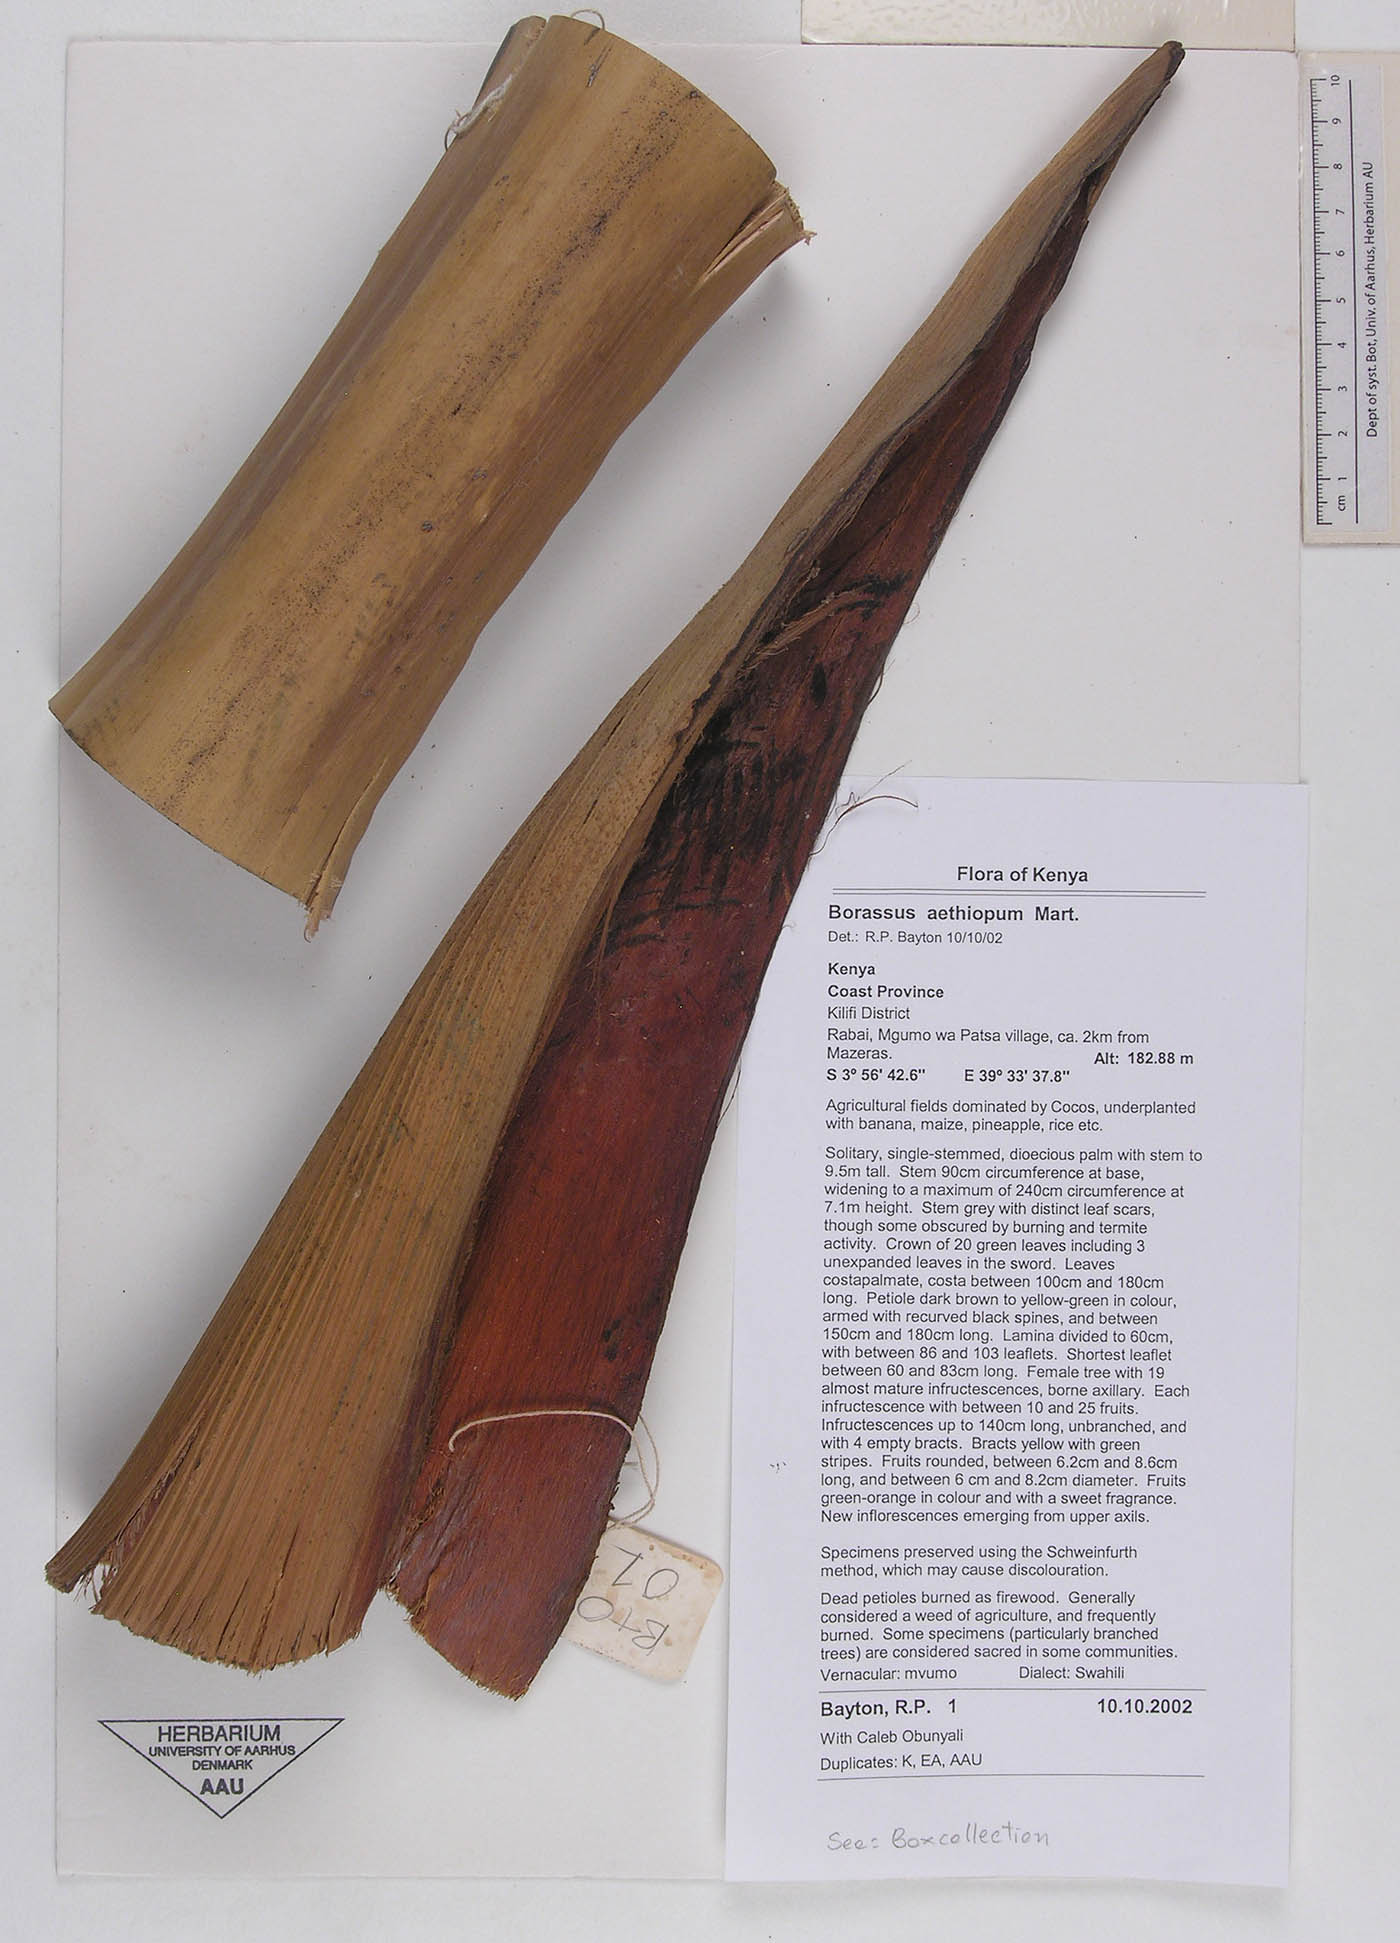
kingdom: Plantae
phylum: Tracheophyta
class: Liliopsida
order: Arecales
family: Arecaceae
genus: Borassus
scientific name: Borassus aethiopum
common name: Elephant palm
